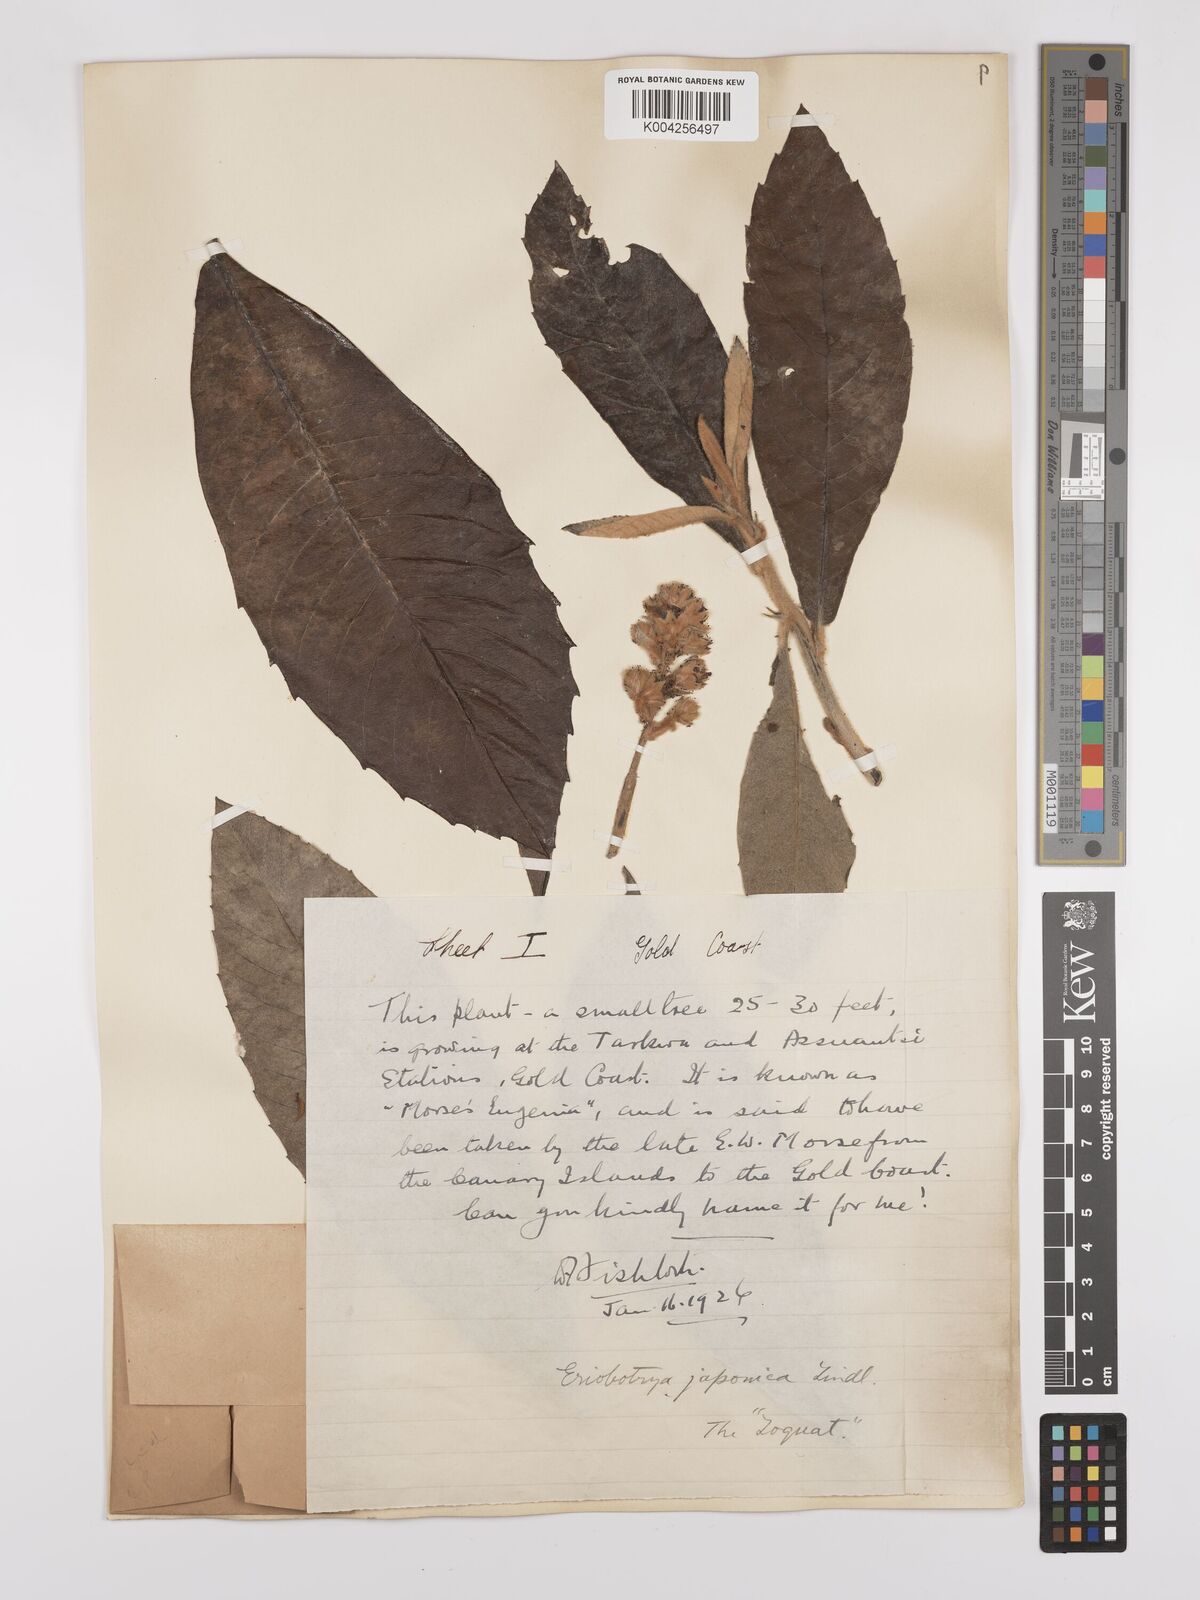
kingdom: Plantae
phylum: Tracheophyta
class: Magnoliopsida
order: Rosales
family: Rosaceae
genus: Rhaphiolepis
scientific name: Rhaphiolepis bibas
